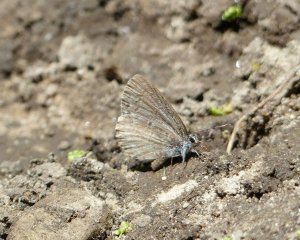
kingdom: Animalia
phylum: Arthropoda
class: Insecta
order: Lepidoptera
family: Lycaenidae
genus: Celastrina
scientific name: Celastrina serotina
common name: Cherry Gall Azure
